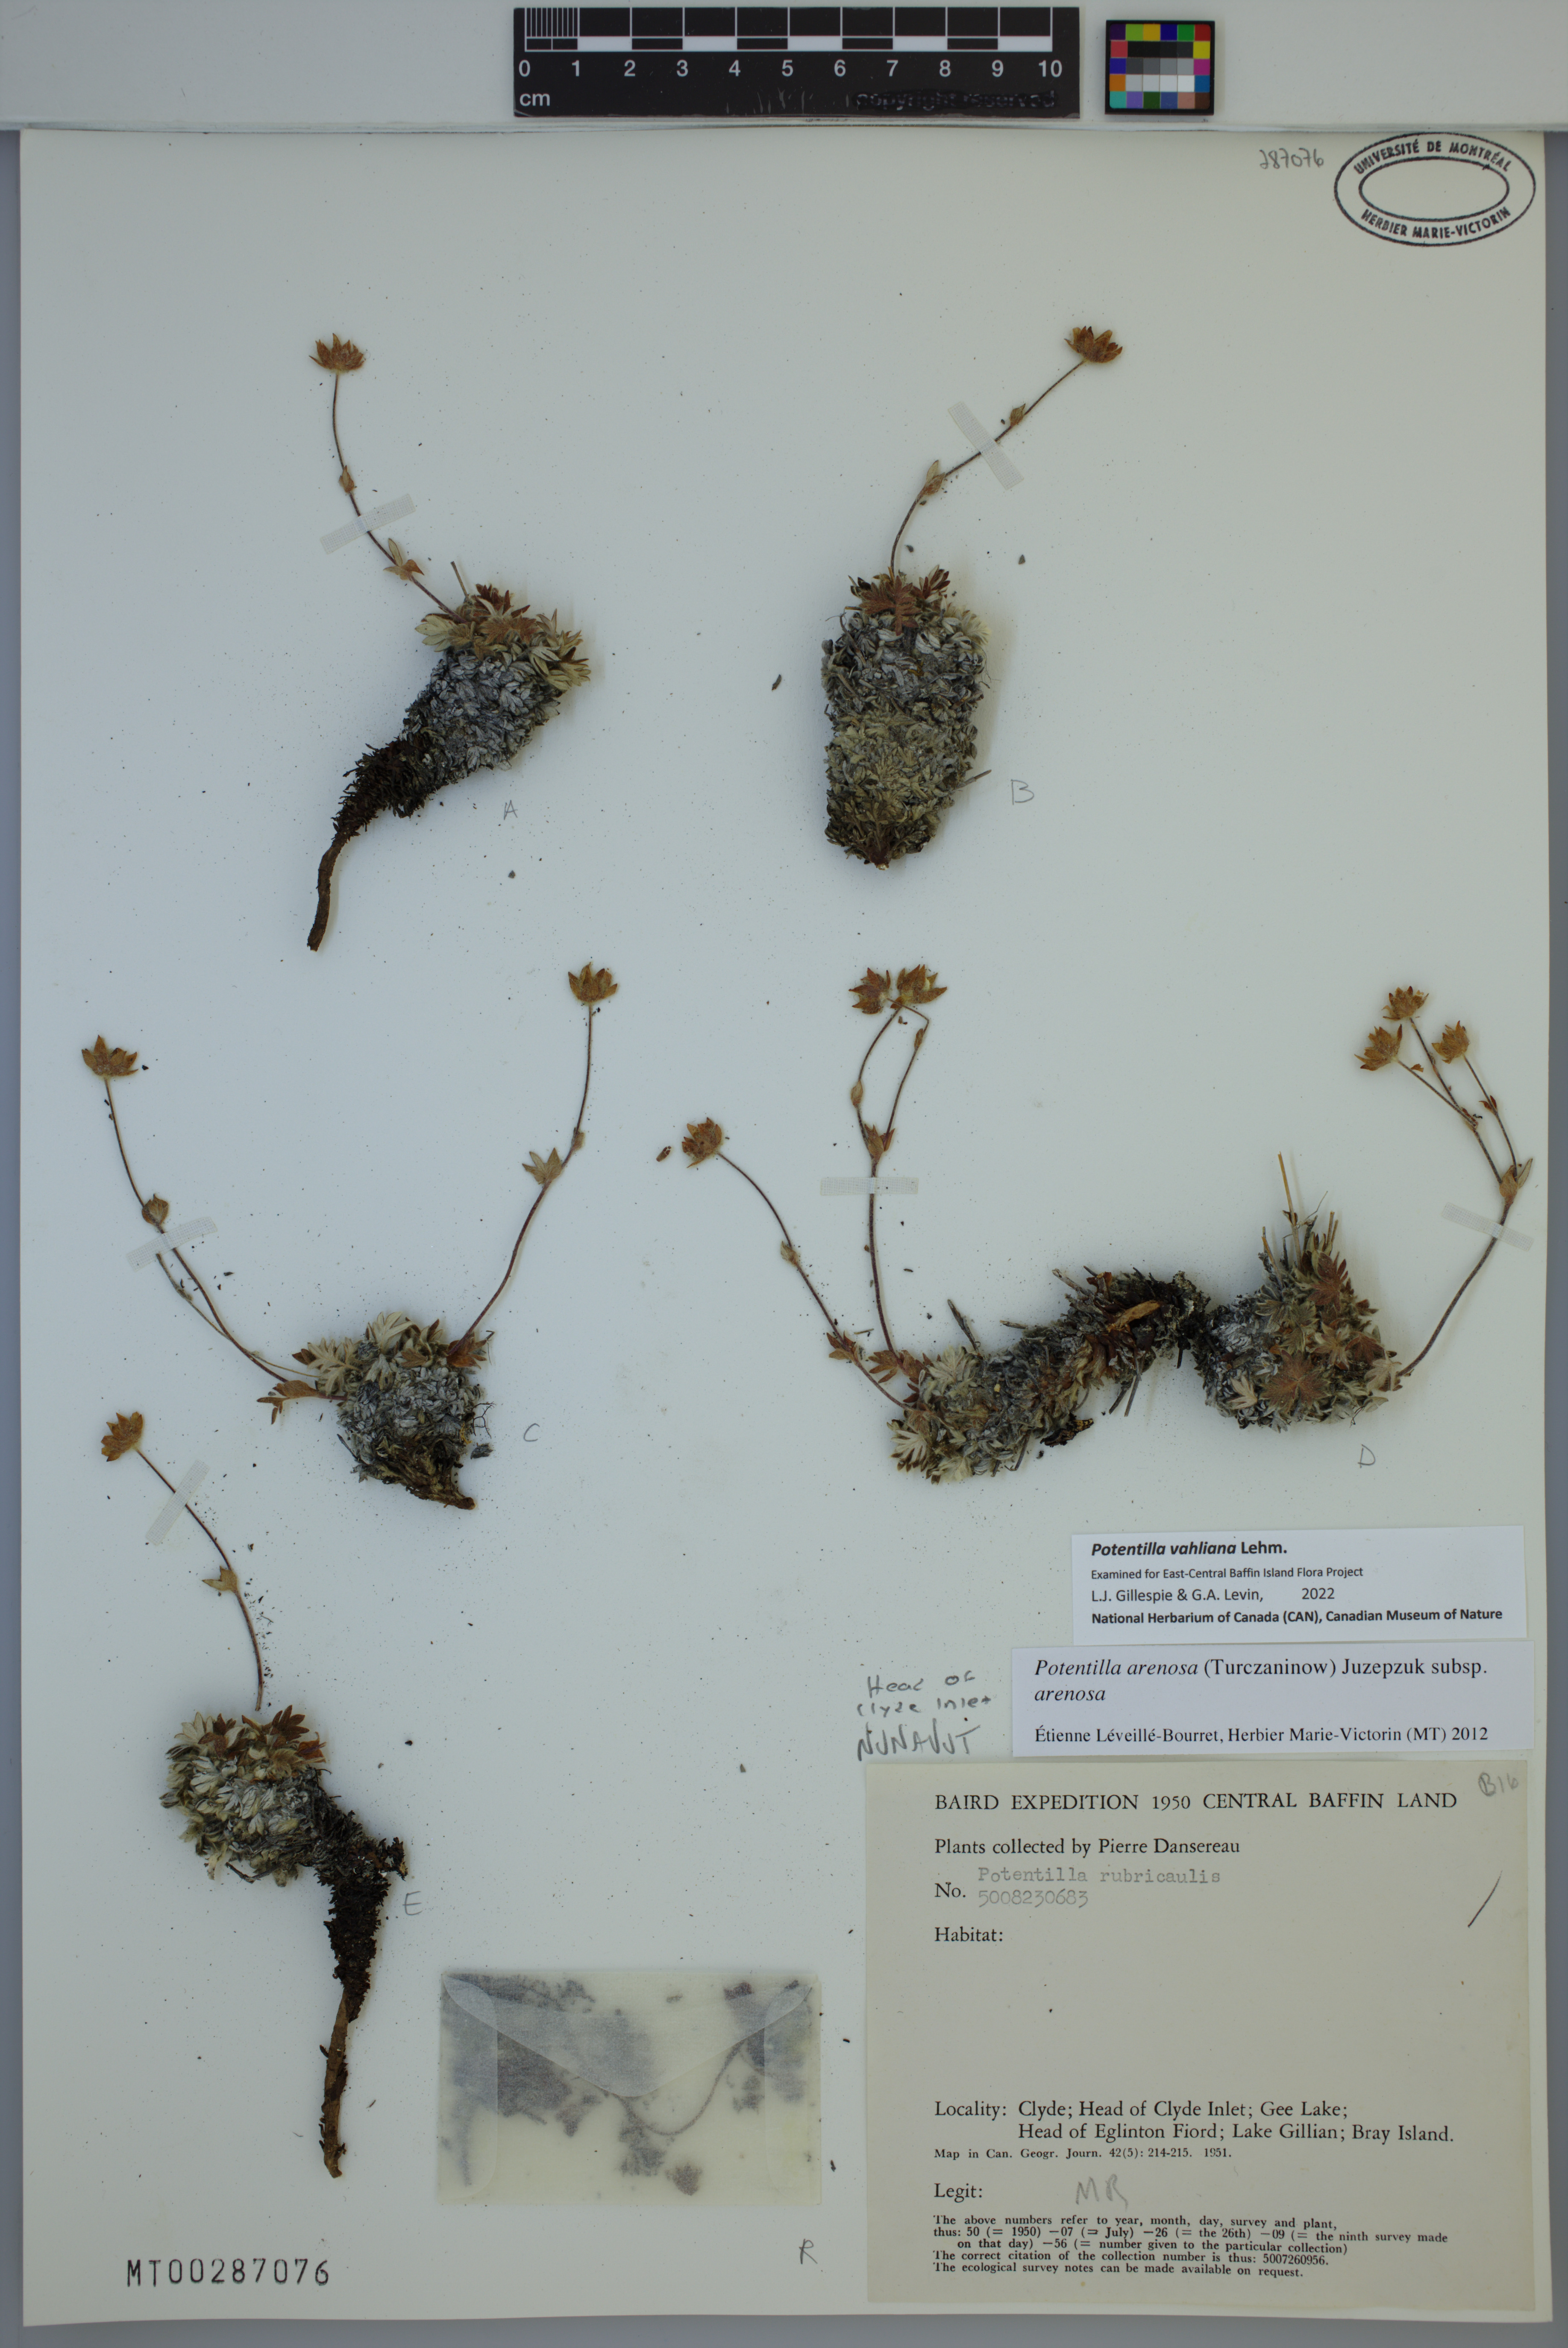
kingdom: Plantae
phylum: Tracheophyta
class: Magnoliopsida
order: Rosales
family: Rosaceae
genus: Potentilla
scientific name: Potentilla vahliana
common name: Vahl's cinquefoil
